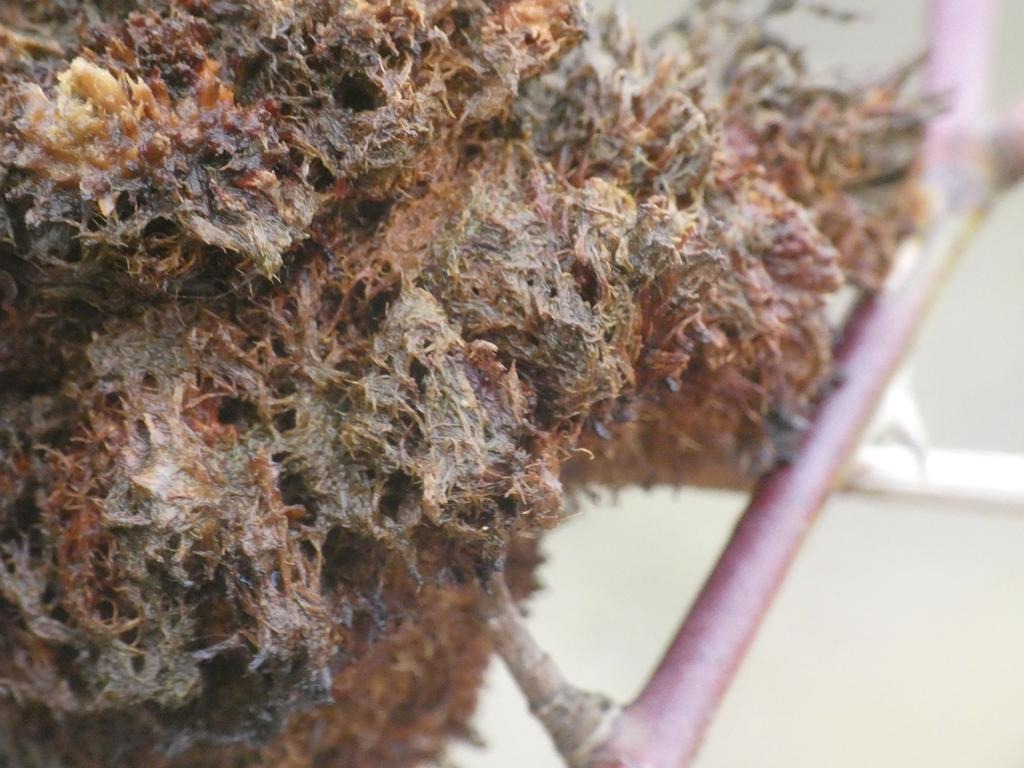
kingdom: Animalia
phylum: Arthropoda
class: Insecta
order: Hymenoptera
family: Cynipidae
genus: Diplolepis
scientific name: Diplolepis rosae
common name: Bedeguargalhveps
